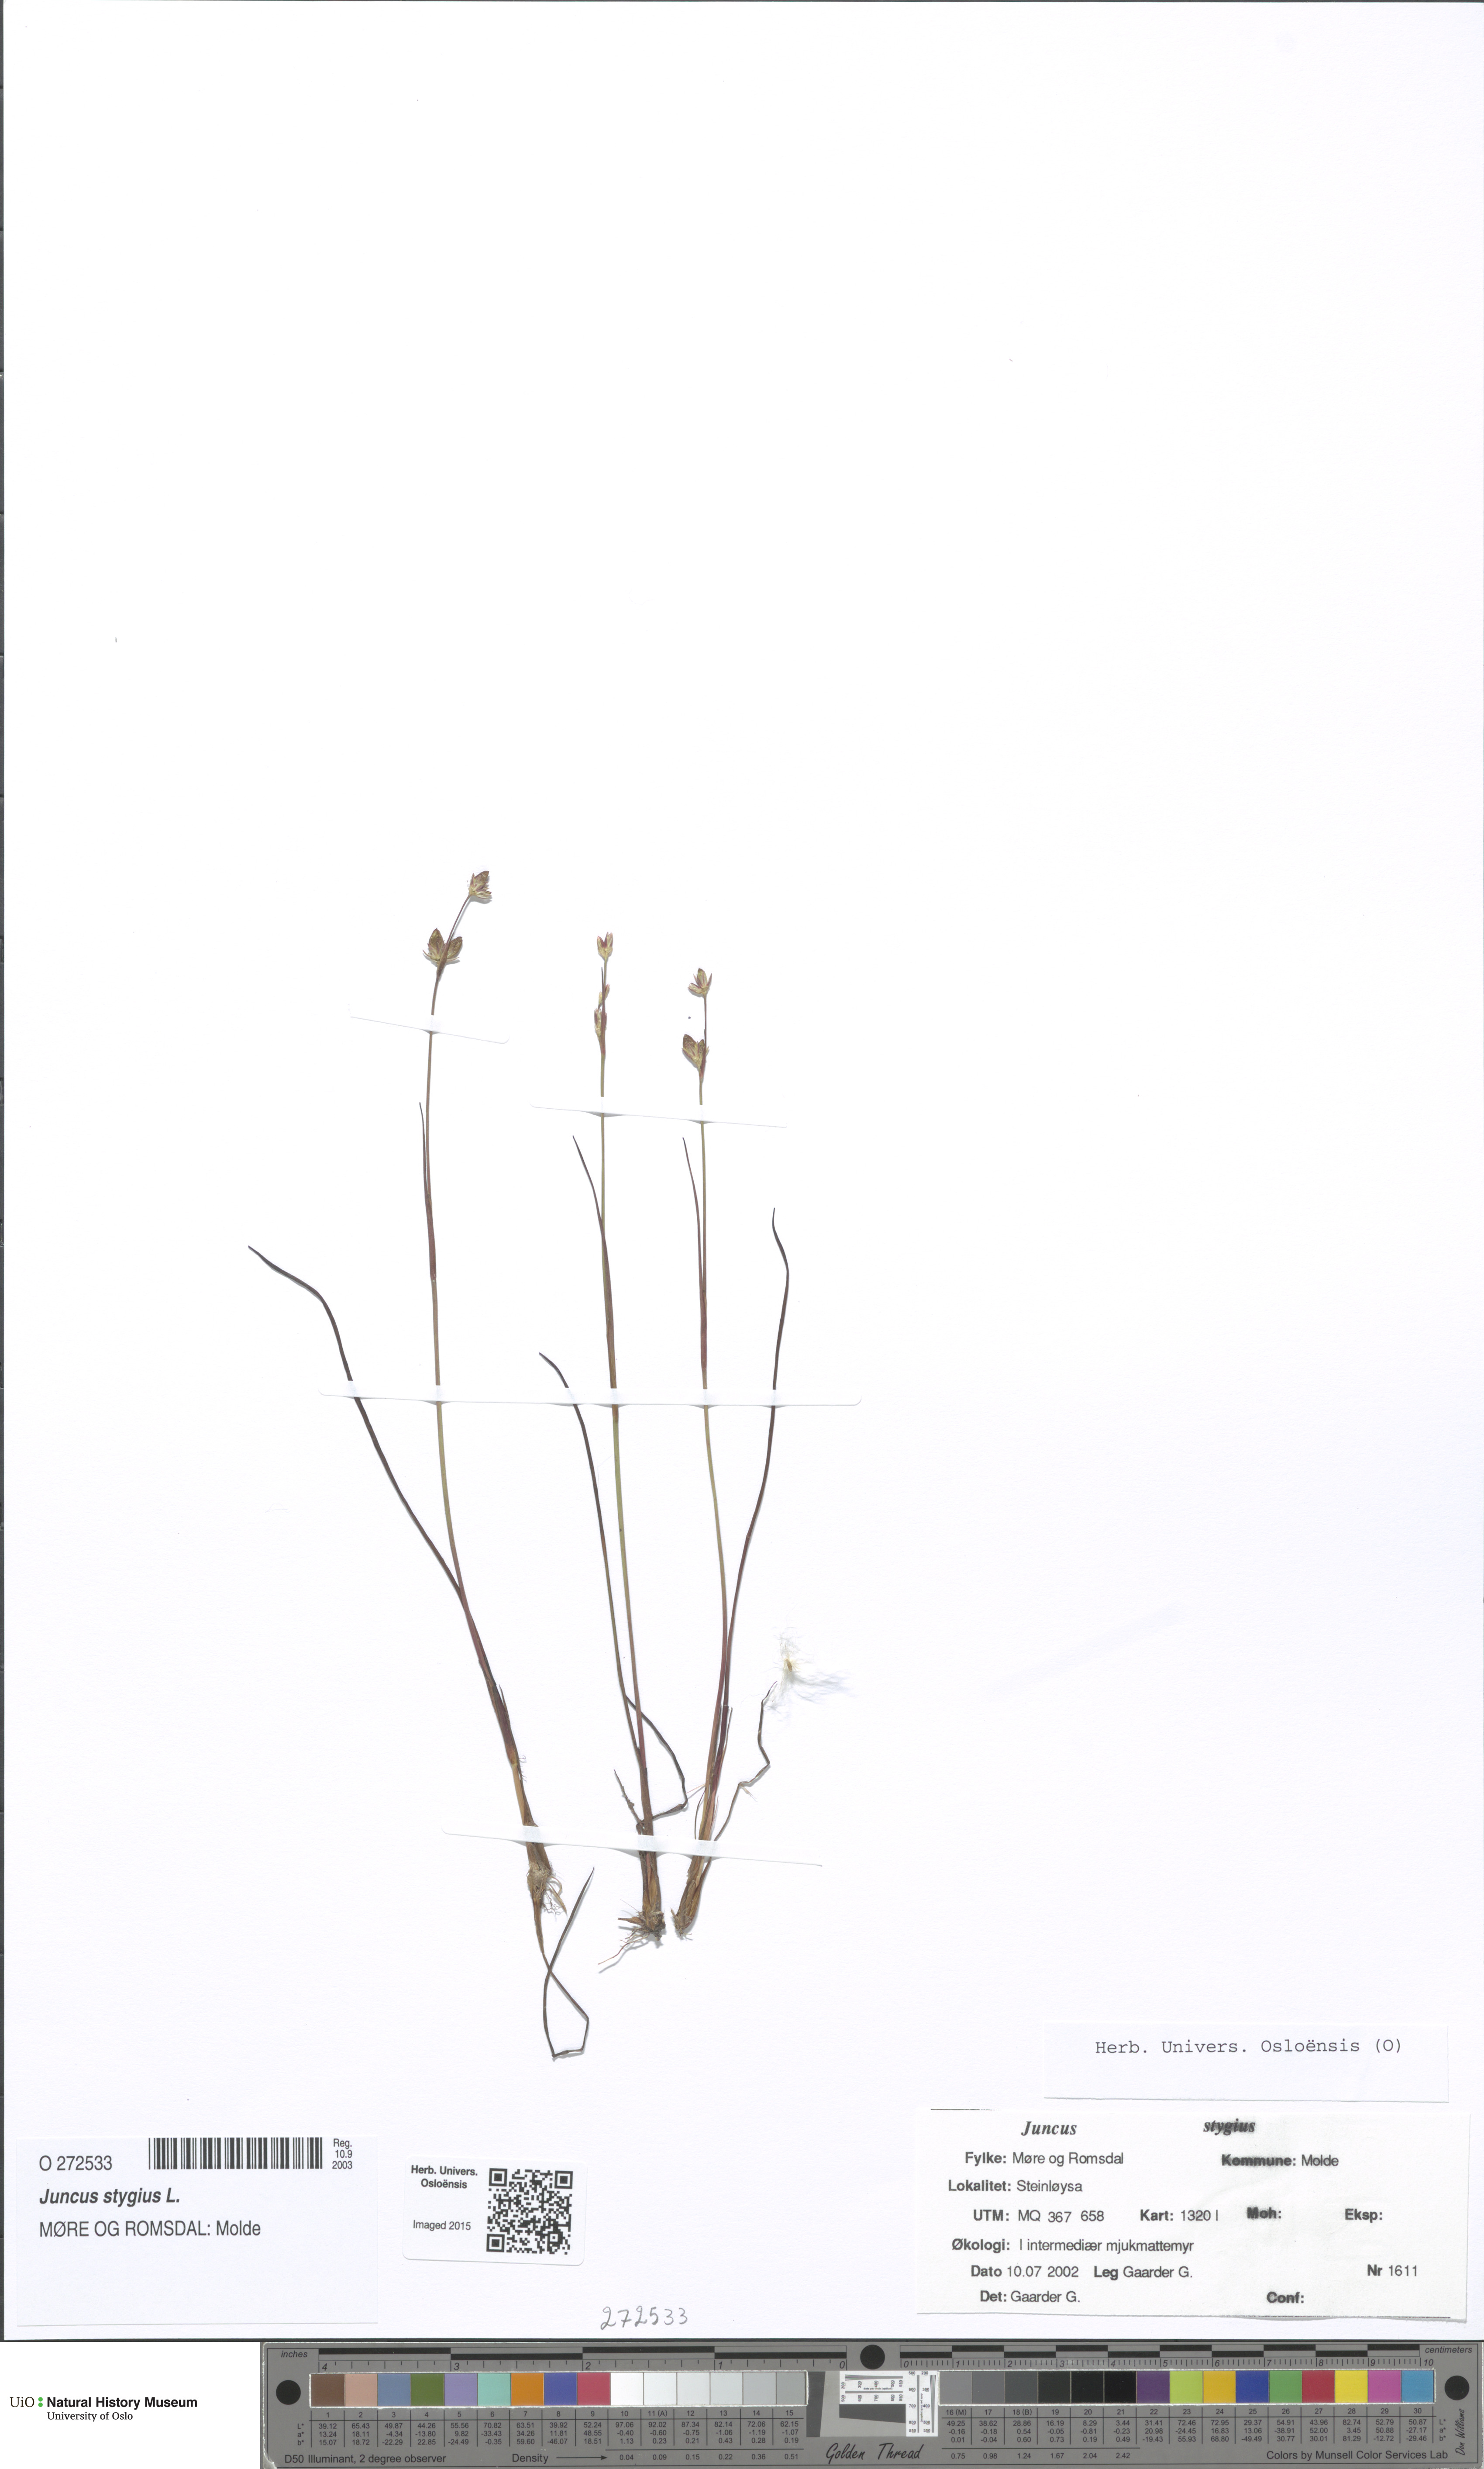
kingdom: Plantae
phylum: Tracheophyta
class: Liliopsida
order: Poales
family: Juncaceae
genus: Juncus
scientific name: Juncus stygius
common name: Bog rush
